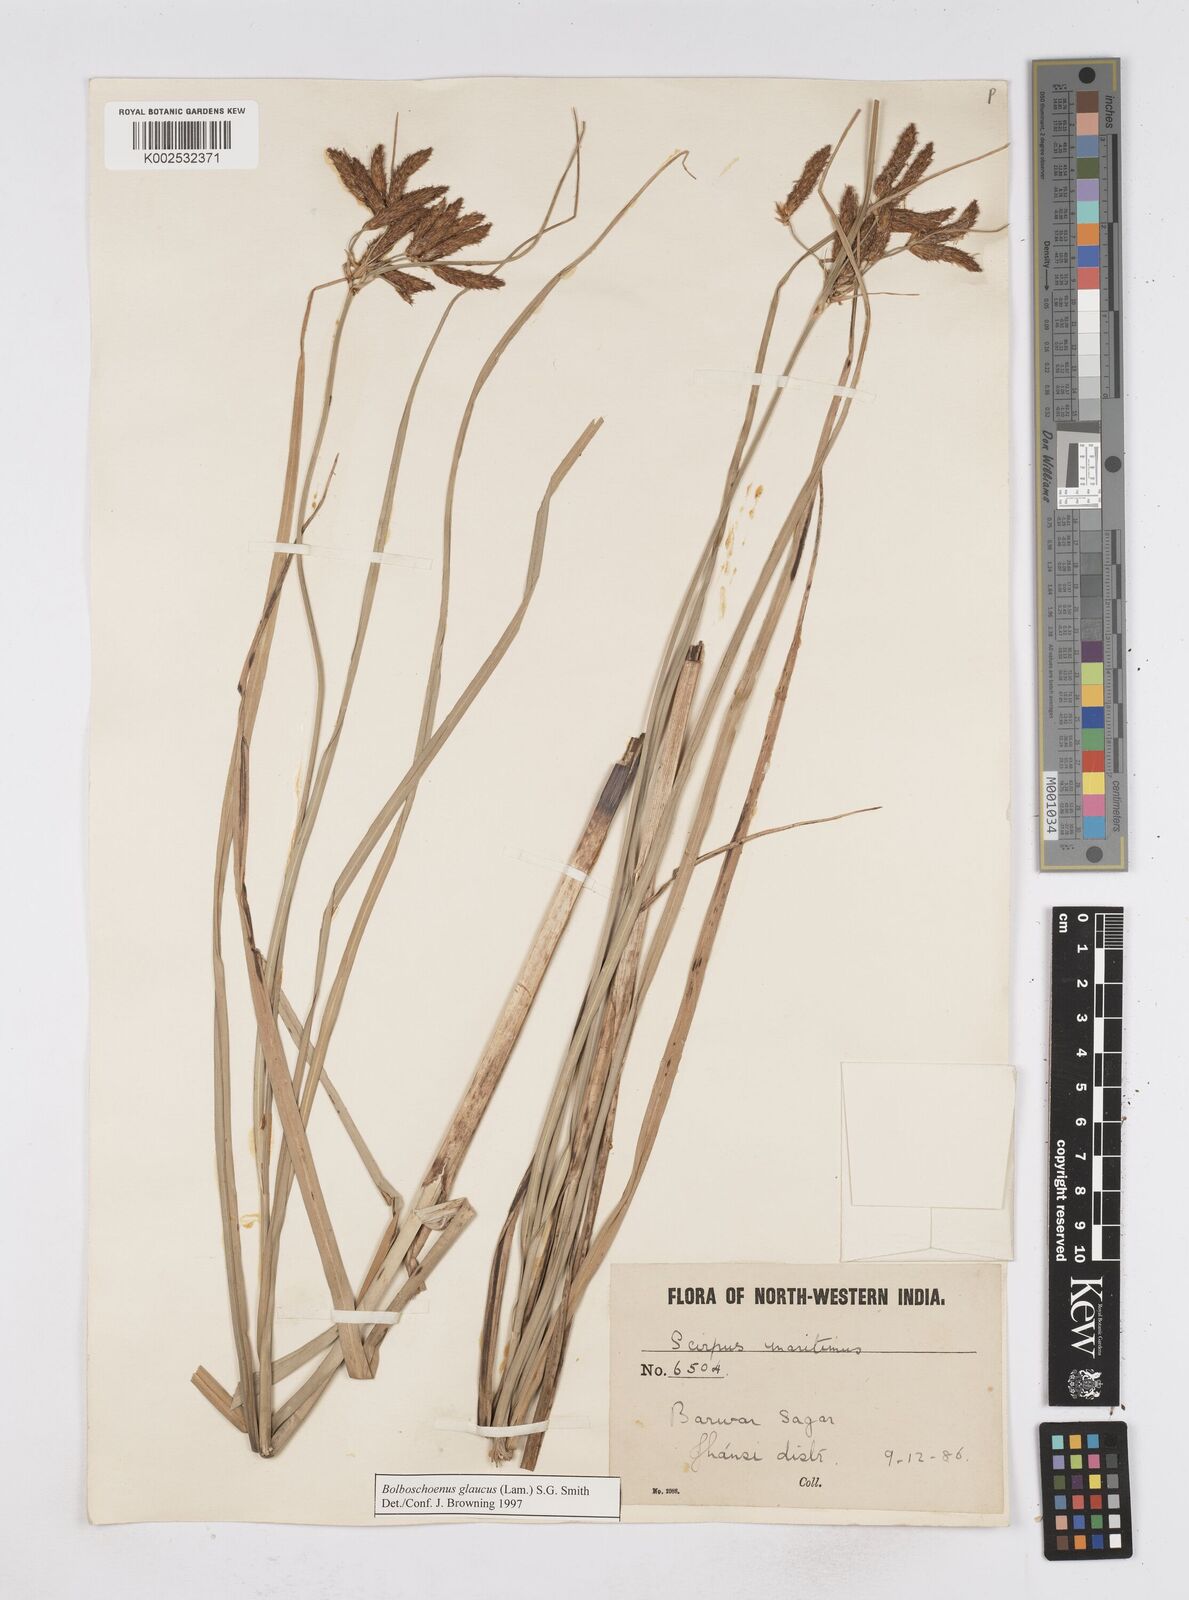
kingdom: Plantae
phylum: Tracheophyta
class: Liliopsida
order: Poales
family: Cyperaceae
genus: Bolboschoenus
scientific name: Bolboschoenus maritimus
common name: Sea club-rush
